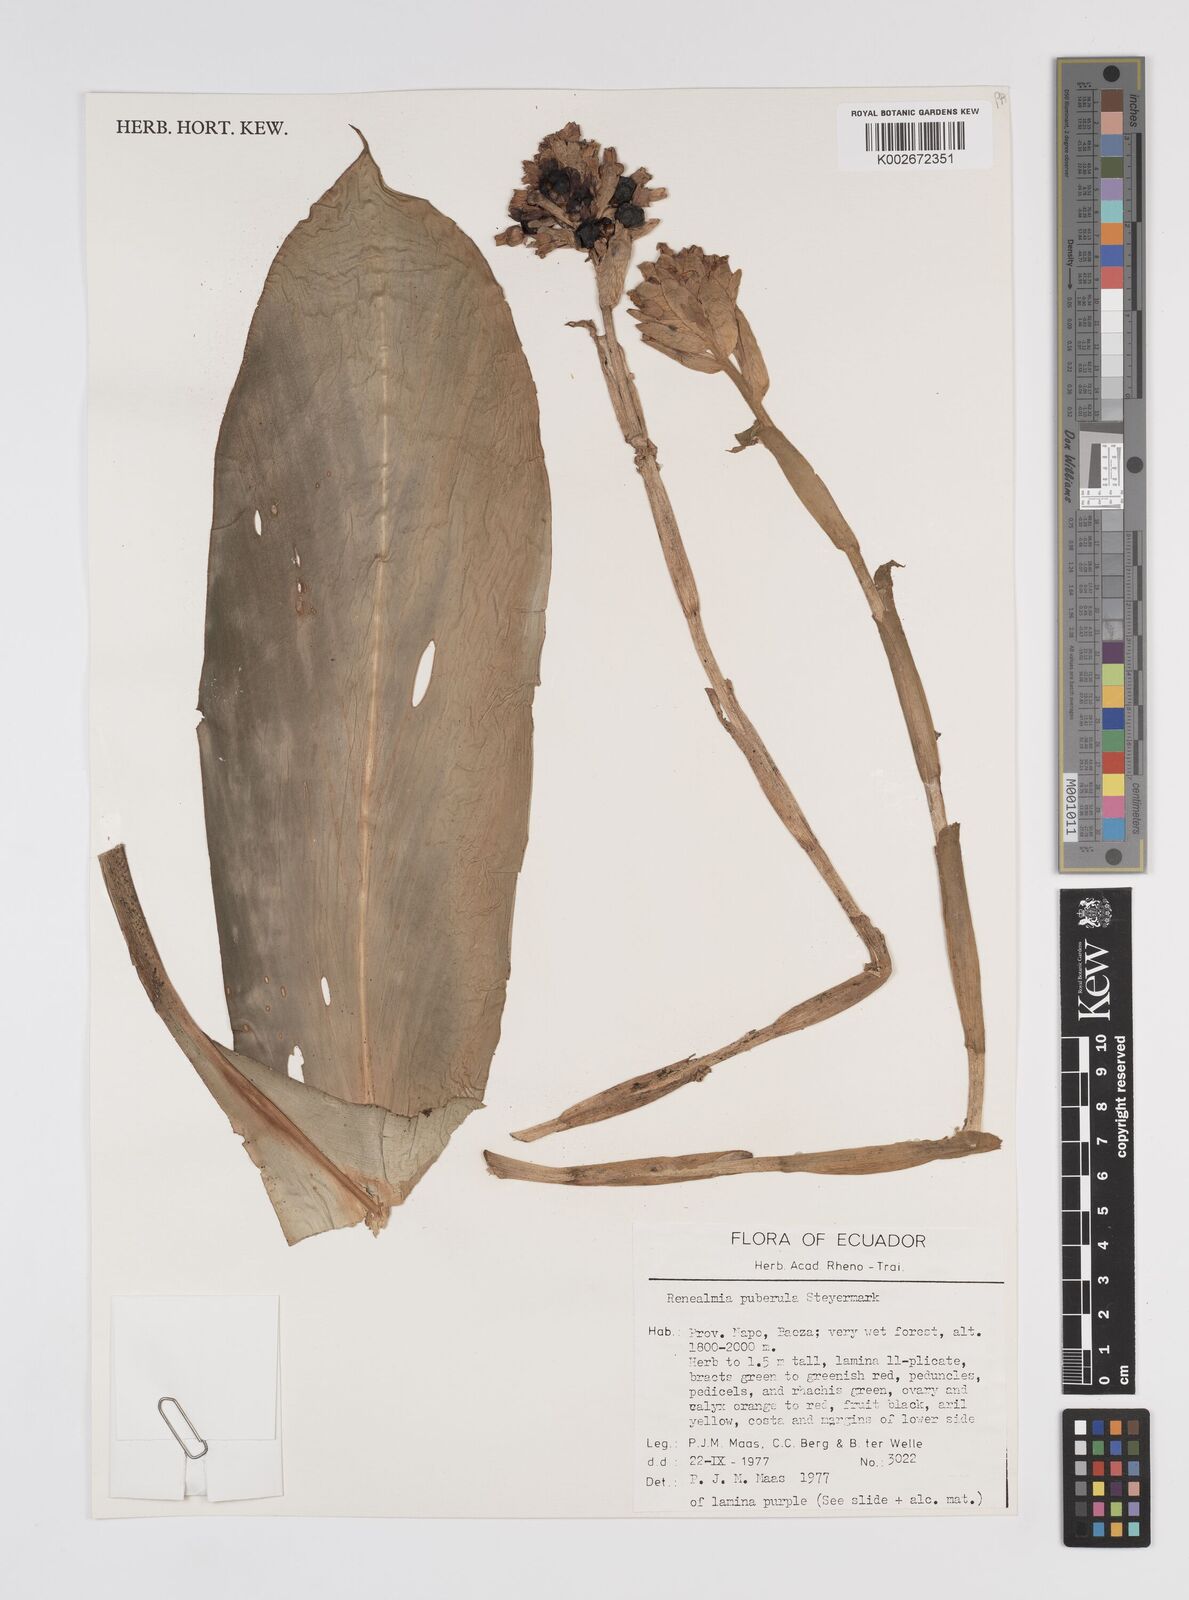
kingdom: Plantae
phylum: Tracheophyta
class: Liliopsida
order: Zingiberales
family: Zingiberaceae
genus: Renealmia
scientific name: Renealmia puberula
